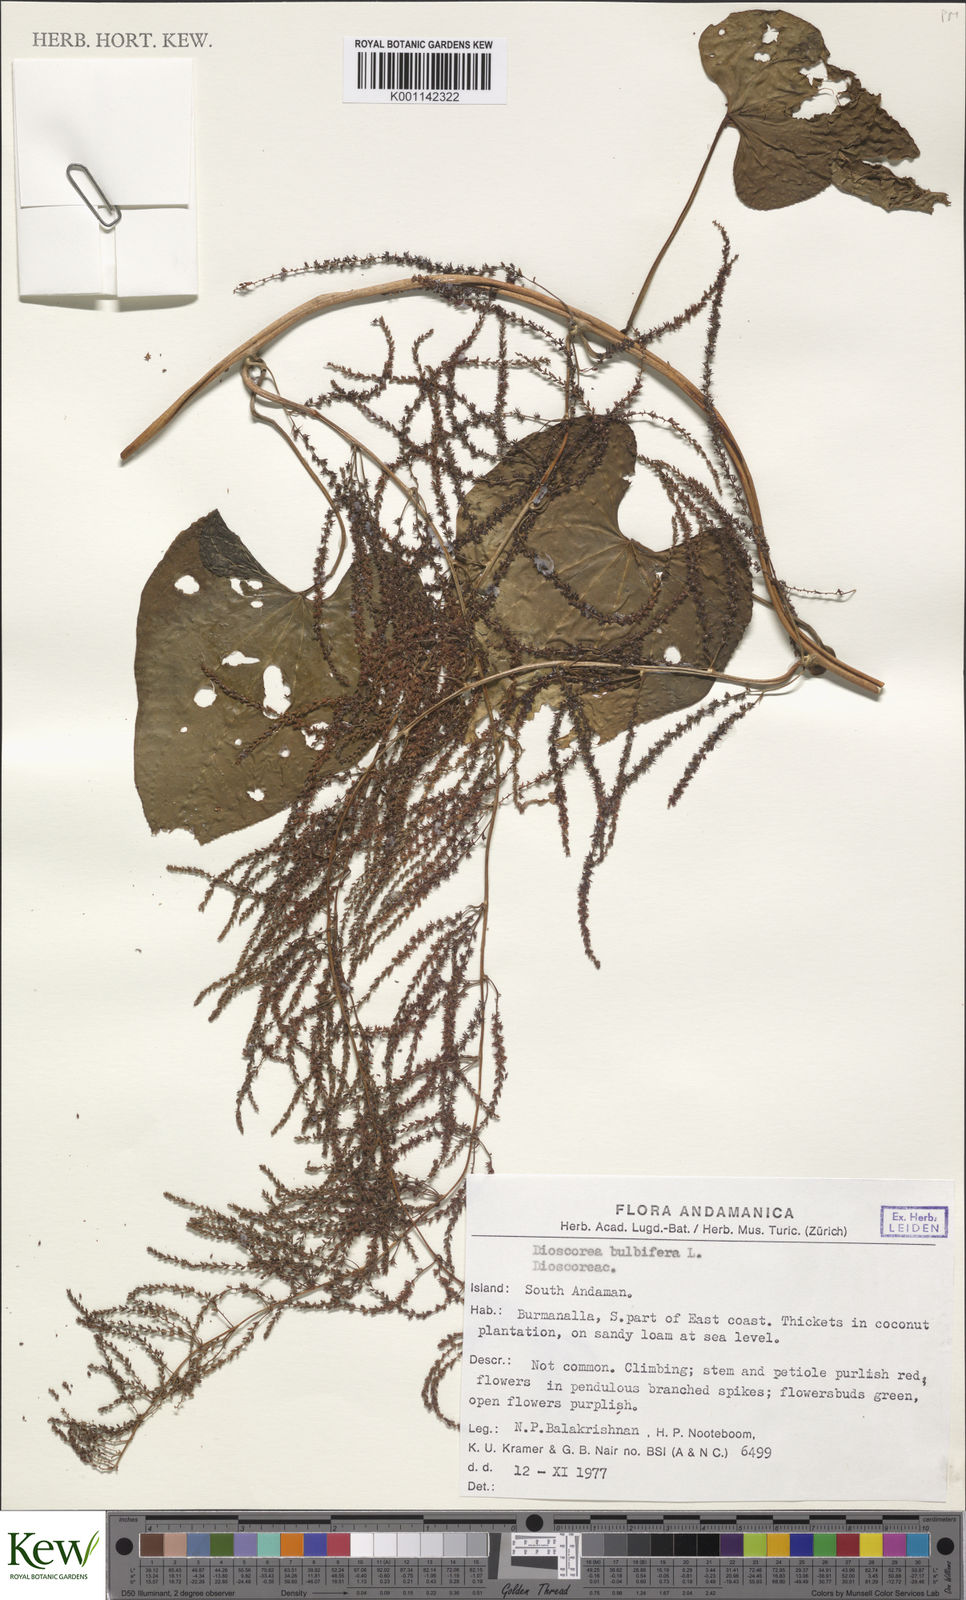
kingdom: Plantae
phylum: Tracheophyta
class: Liliopsida
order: Dioscoreales
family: Dioscoreaceae
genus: Dioscorea
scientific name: Dioscorea bulbifera
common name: Air yam
